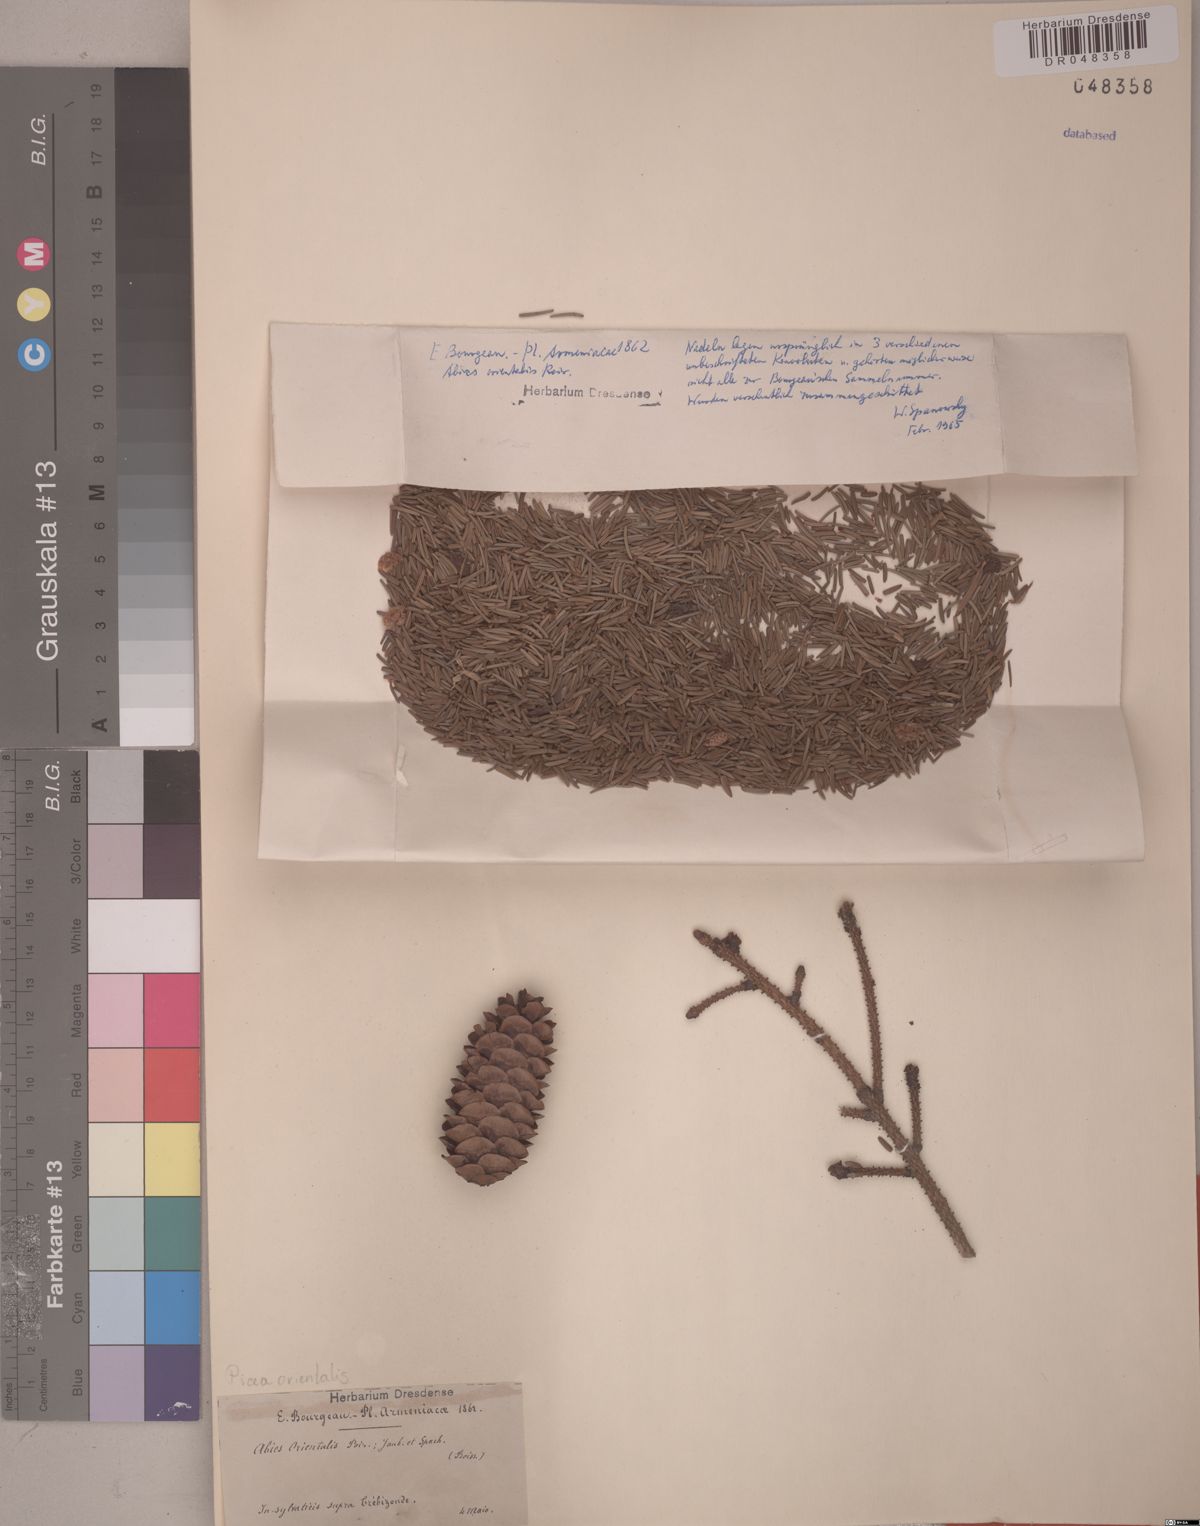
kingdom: Plantae
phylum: Tracheophyta
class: Pinopsida
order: Pinales
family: Pinaceae
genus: Picea
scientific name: Picea orientalis
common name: Oriental spruce
